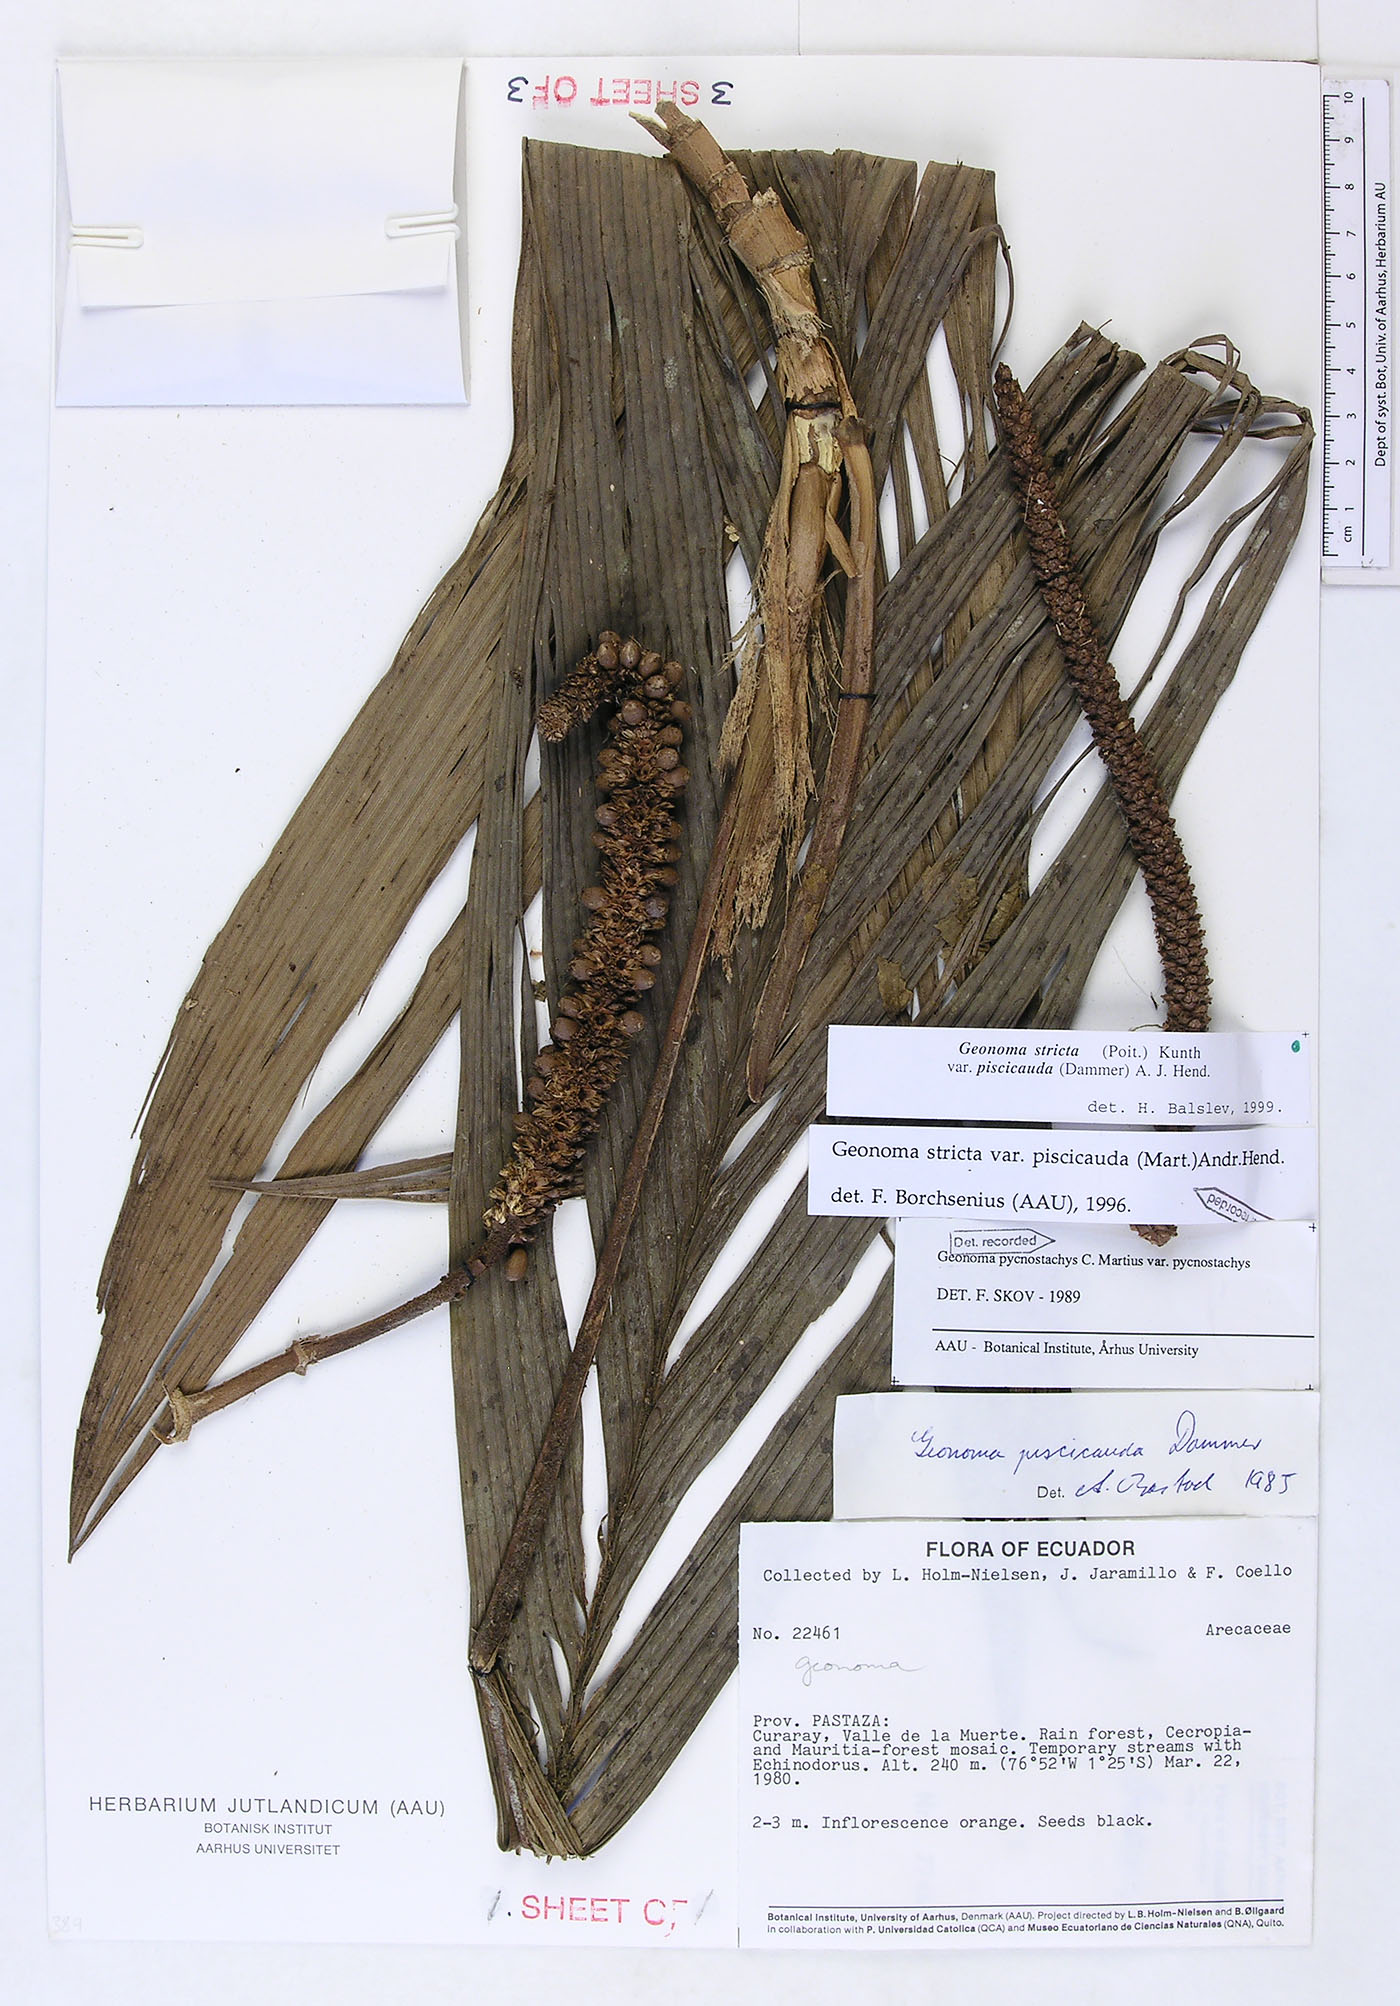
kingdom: Plantae
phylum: Tracheophyta
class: Liliopsida
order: Arecales
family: Arecaceae
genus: Geonoma
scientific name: Geonoma stricta
